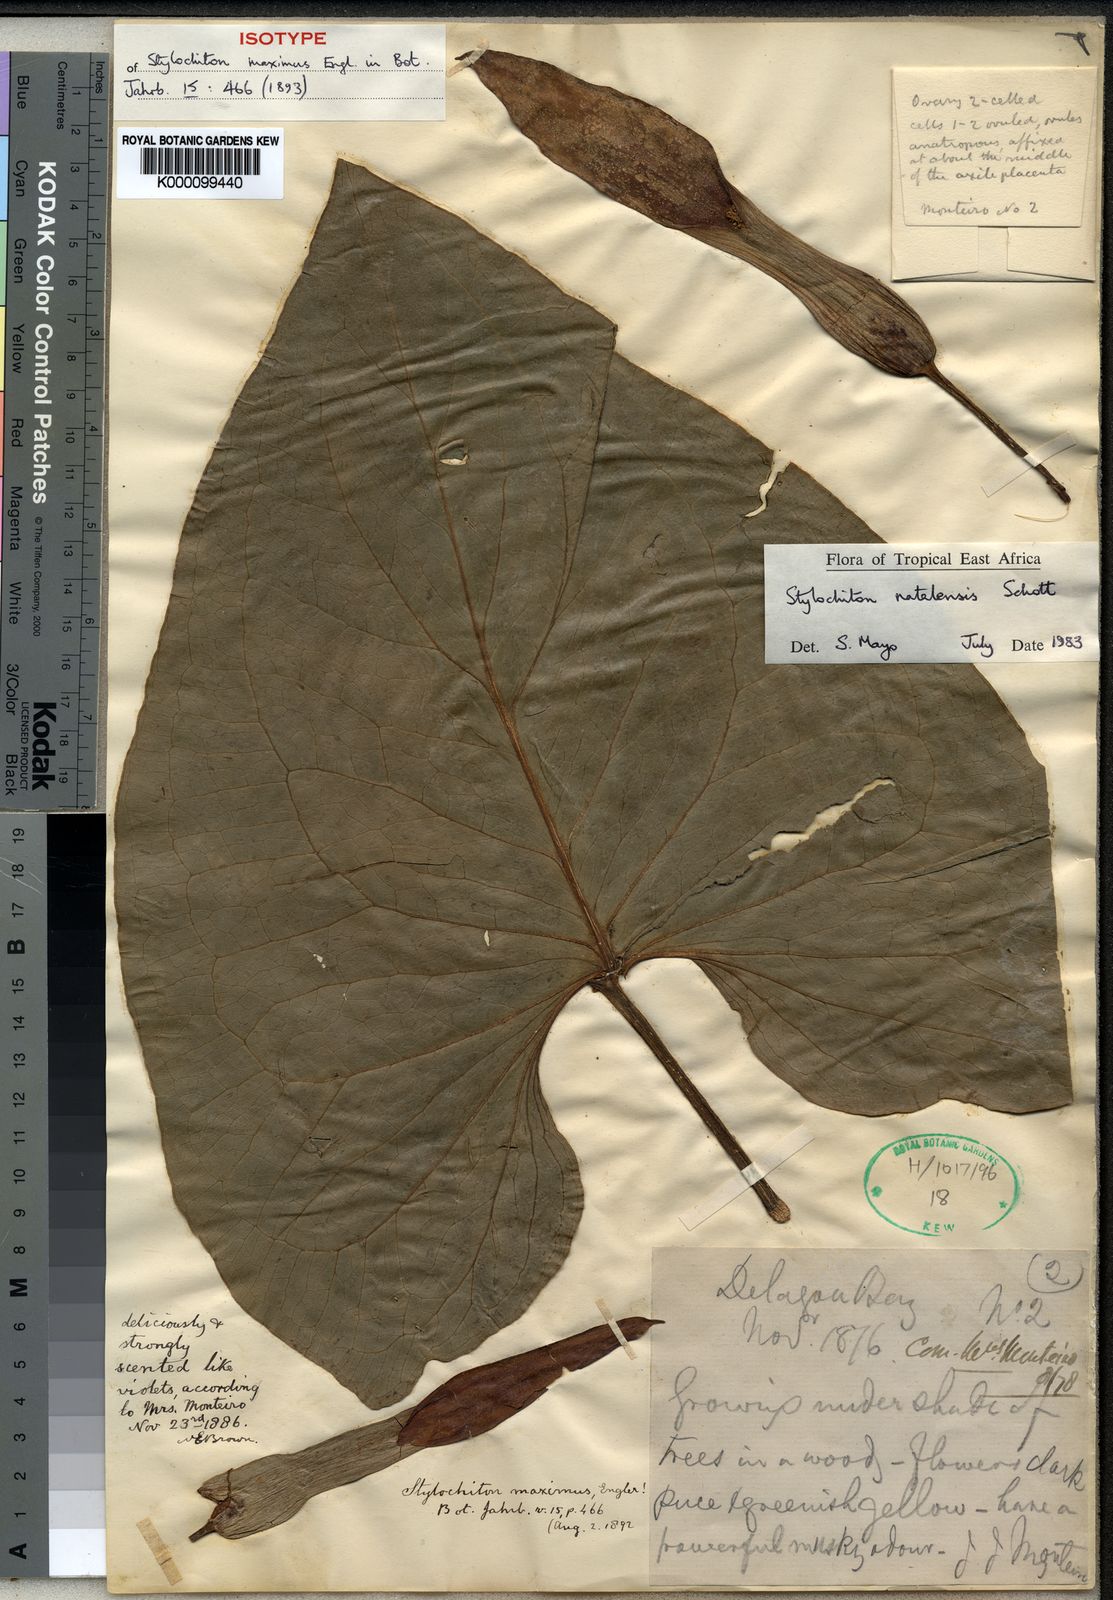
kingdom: Plantae
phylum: Tracheophyta
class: Liliopsida
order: Alismatales
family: Araceae
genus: Stylochaeton
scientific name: Stylochaeton
